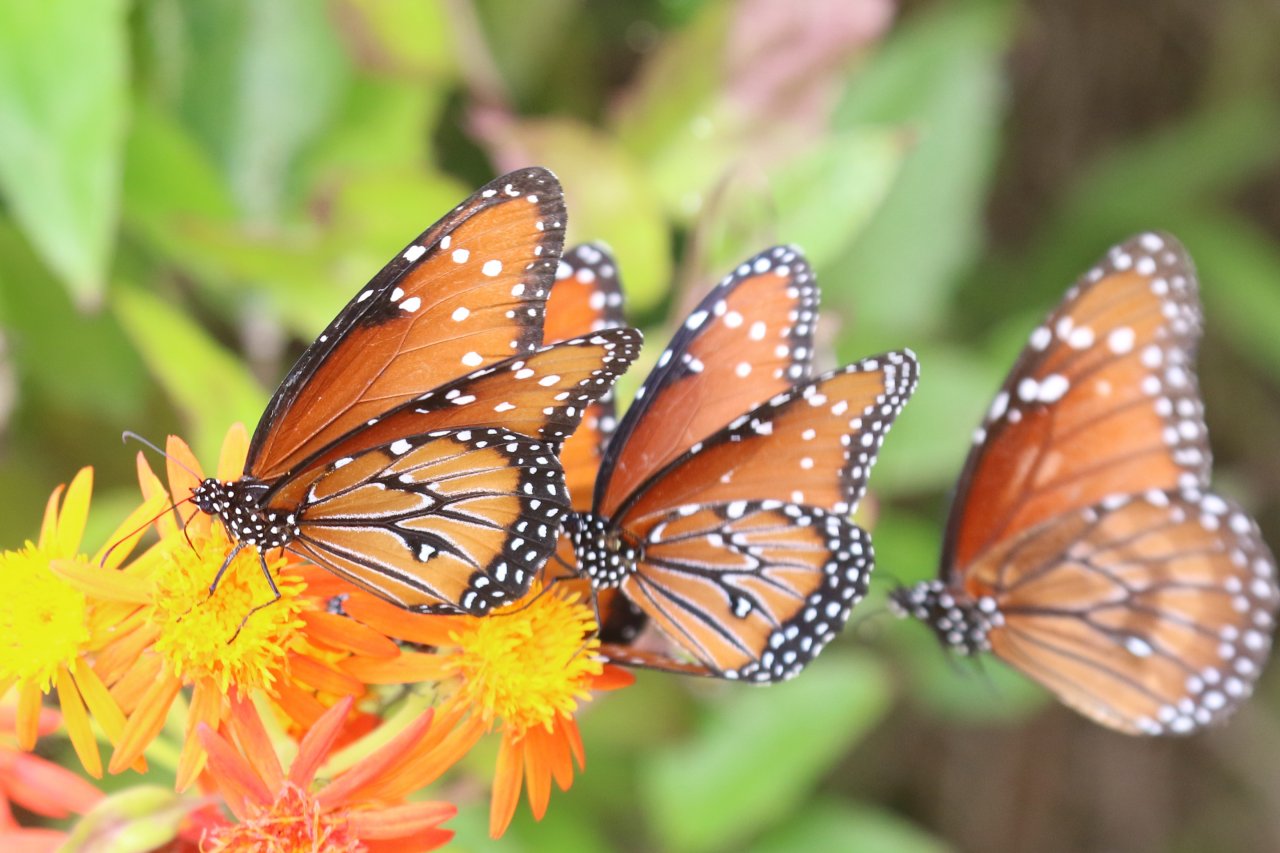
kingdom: Animalia
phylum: Arthropoda
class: Insecta
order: Lepidoptera
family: Nymphalidae
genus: Danaus
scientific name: Danaus gilippus
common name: Queen
